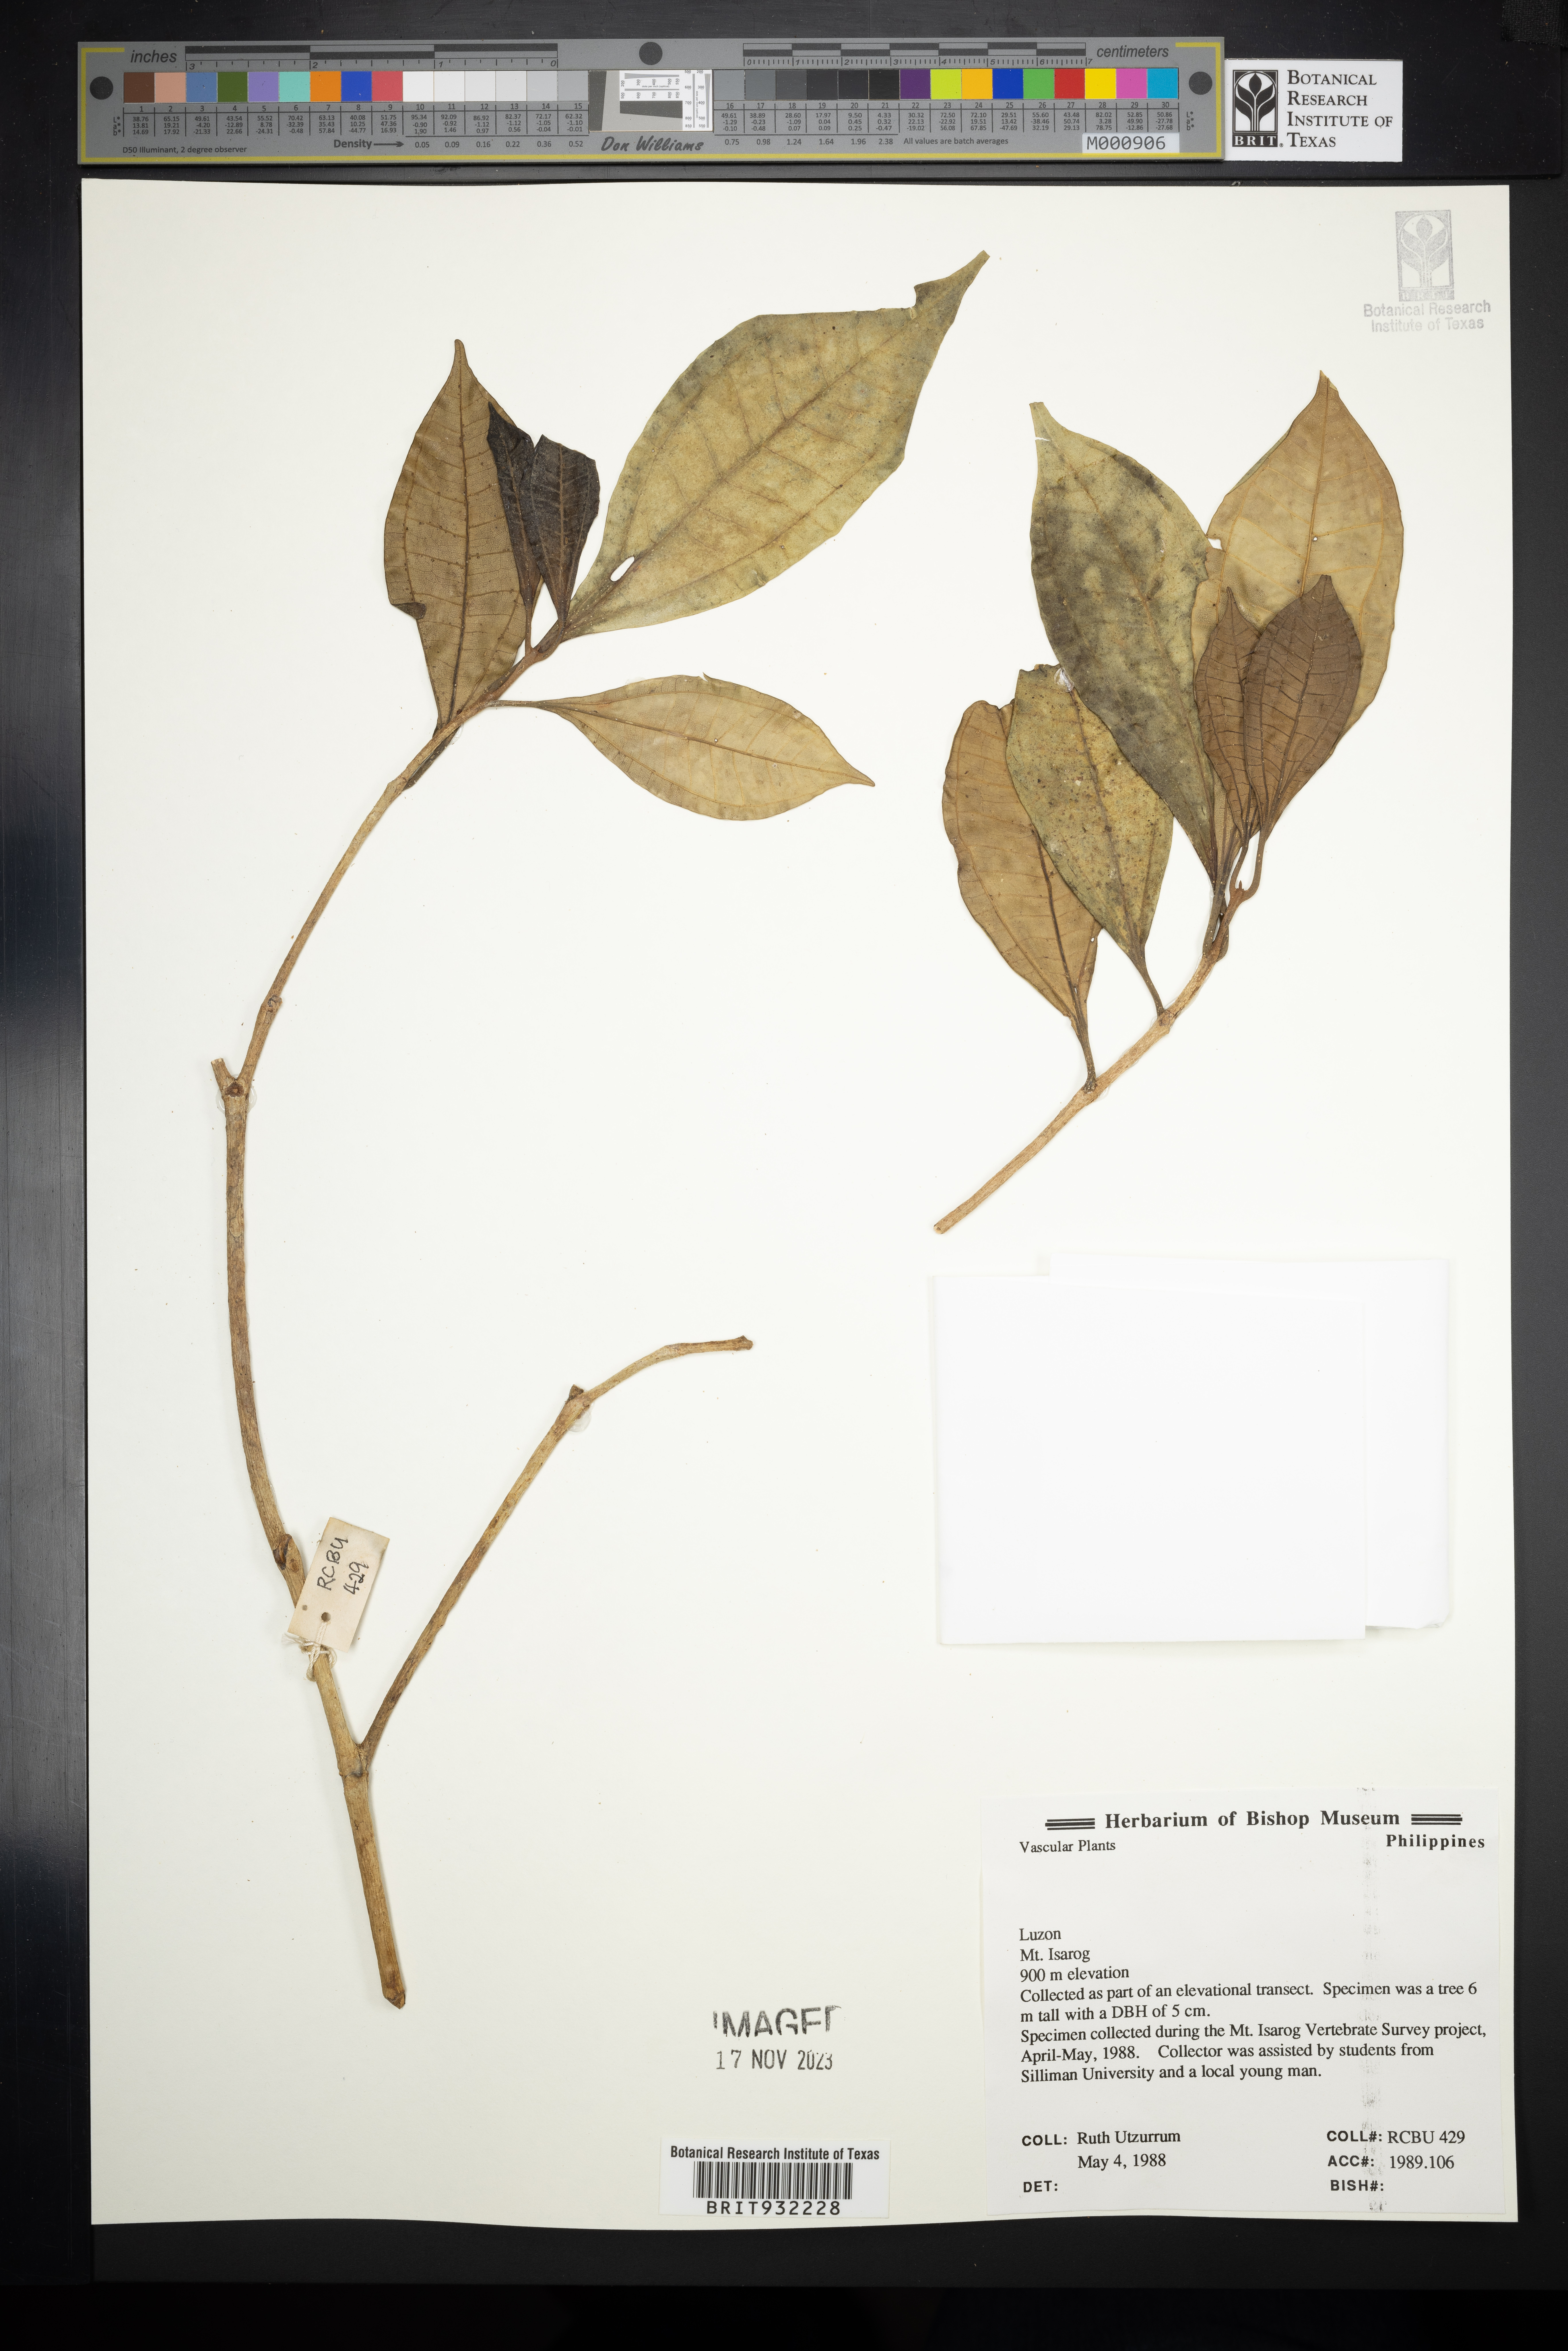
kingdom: Plantae
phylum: Tracheophyta
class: Magnoliopsida
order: Myrtales
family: Melastomataceae
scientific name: Melastomataceae
